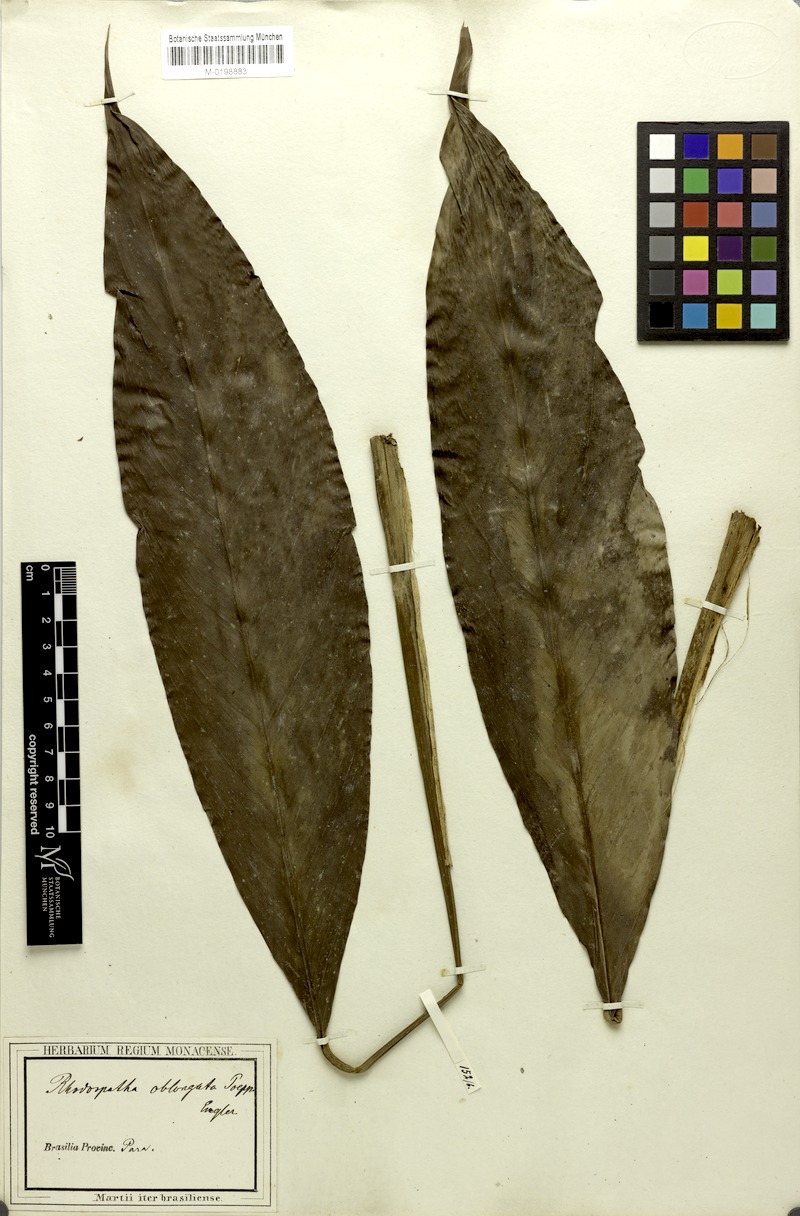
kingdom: Plantae
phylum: Tracheophyta
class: Liliopsida
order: Alismatales
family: Araceae
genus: Rhodospatha
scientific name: Rhodospatha oblongata
